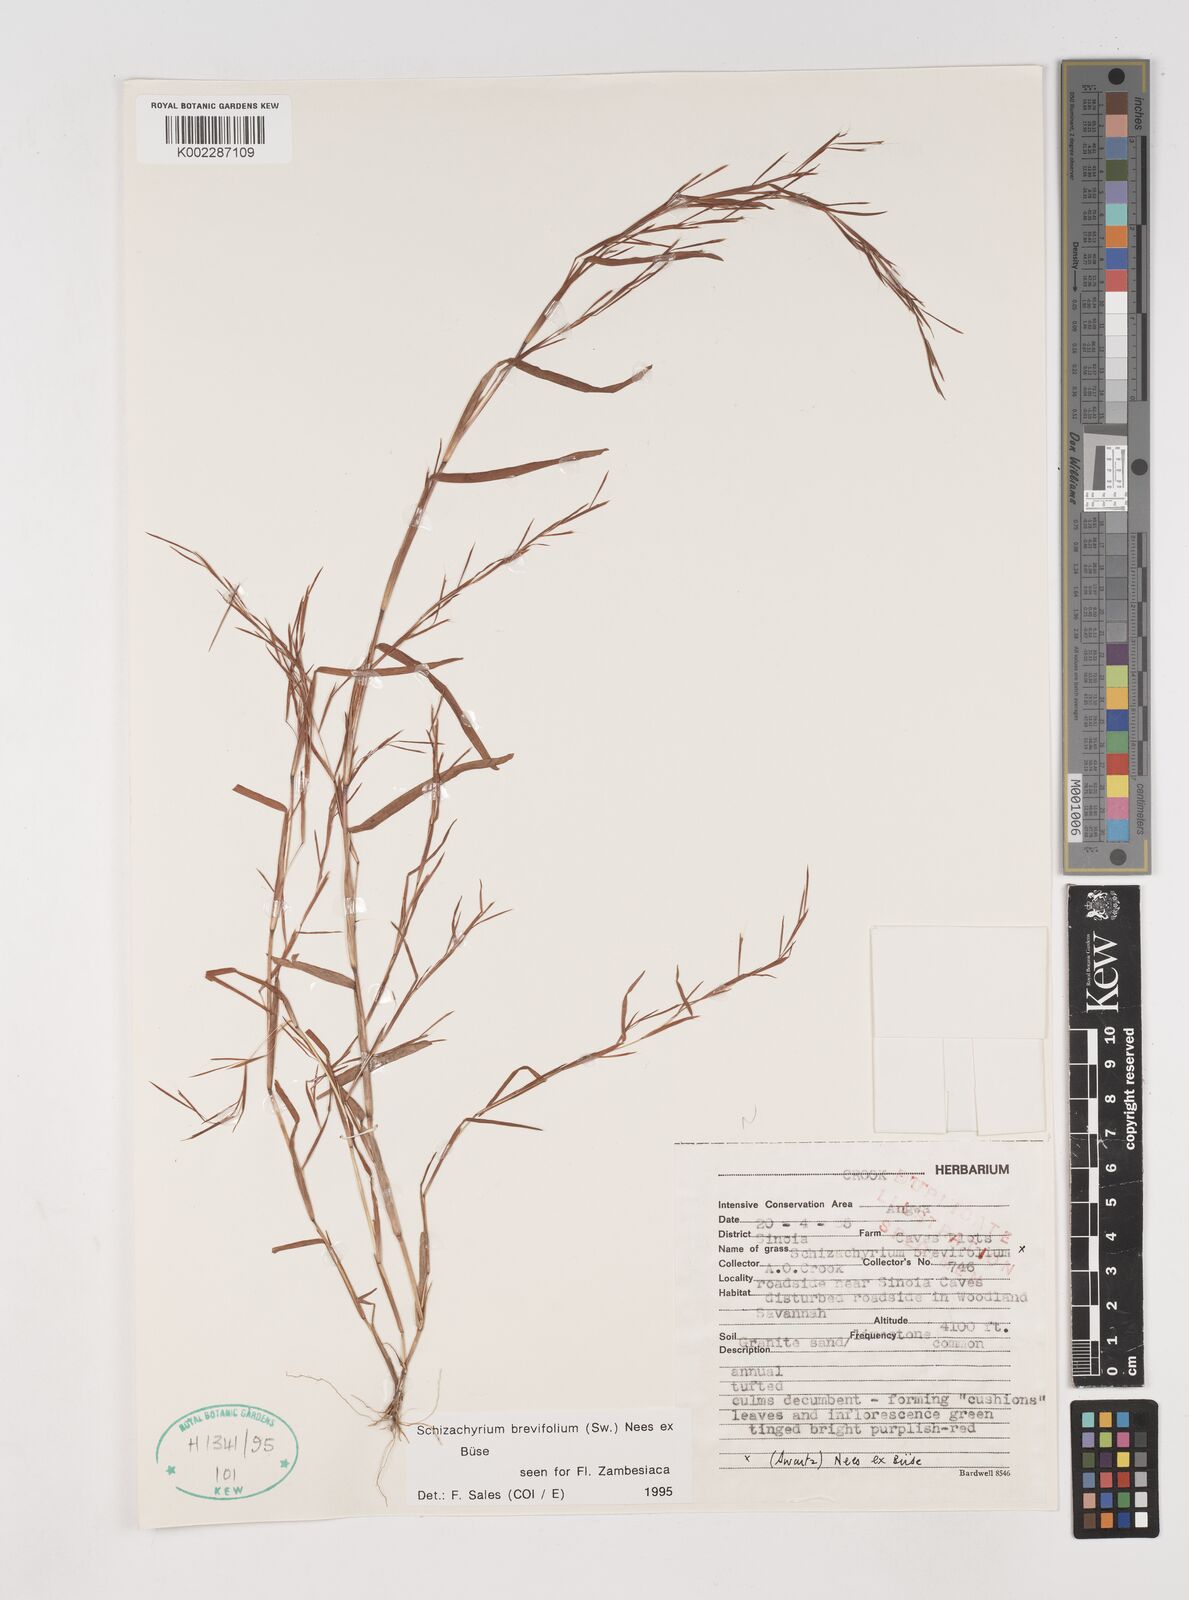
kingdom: Plantae
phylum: Tracheophyta
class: Liliopsida
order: Poales
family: Poaceae
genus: Schizachyrium
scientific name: Schizachyrium brevifolium
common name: Serillo dulce
